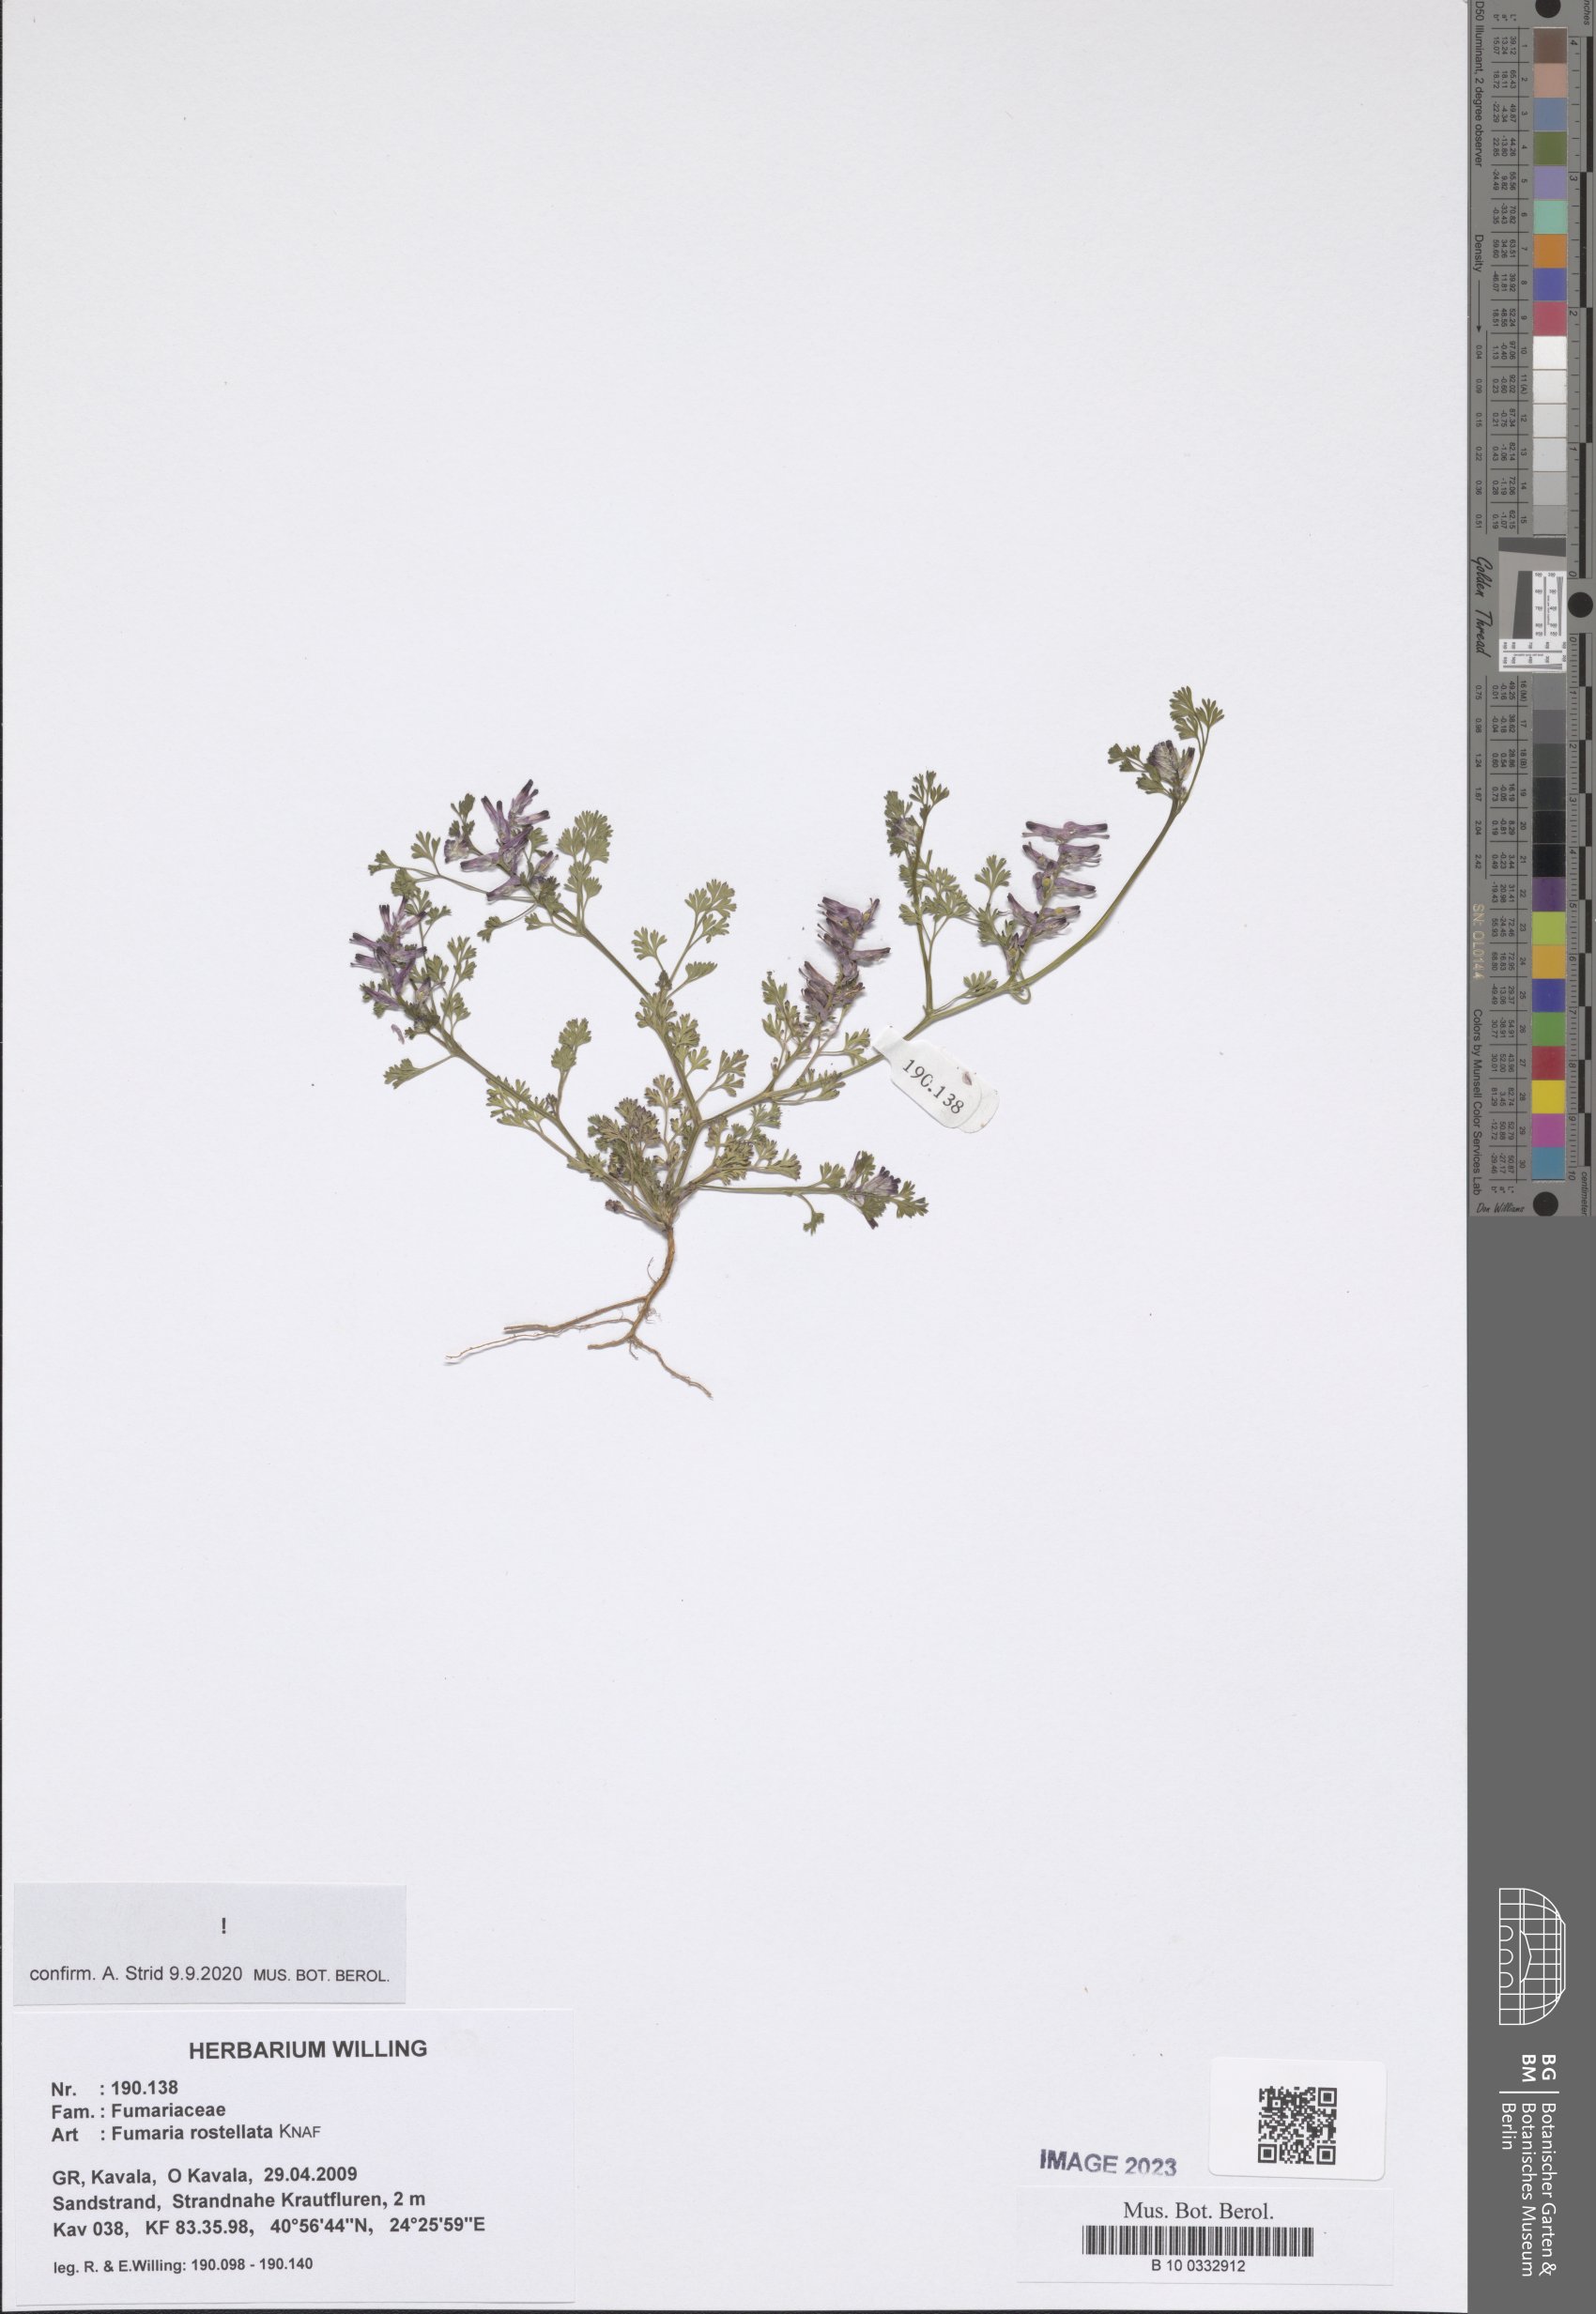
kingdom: Plantae
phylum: Tracheophyta
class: Magnoliopsida
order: Ranunculales
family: Papaveraceae
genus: Fumaria
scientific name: Fumaria rostellata
